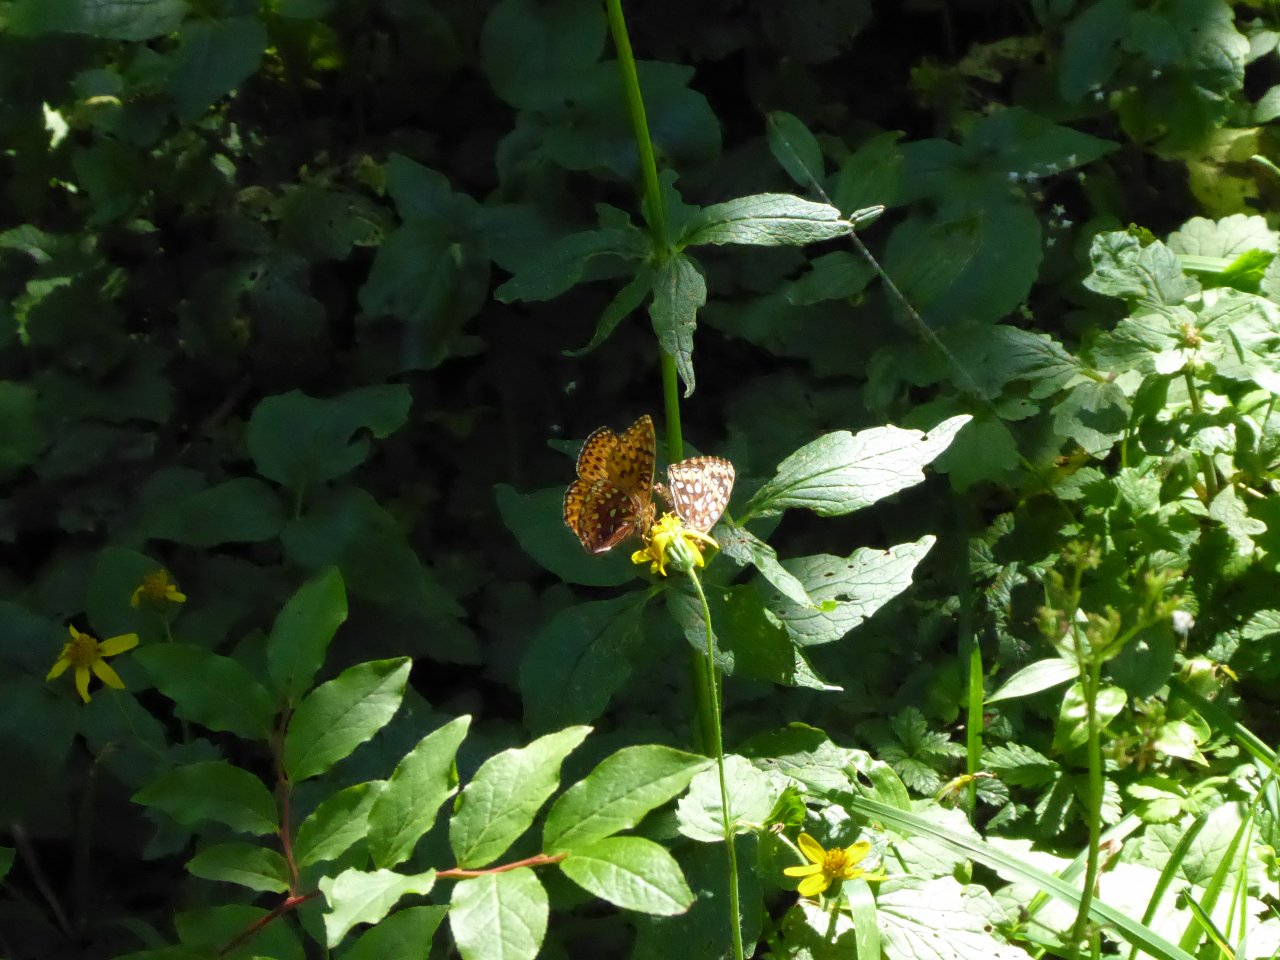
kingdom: Animalia
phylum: Arthropoda
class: Insecta
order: Lepidoptera
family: Nymphalidae
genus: Speyeria
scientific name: Speyeria atlantis
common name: Northwestern Fritillary
